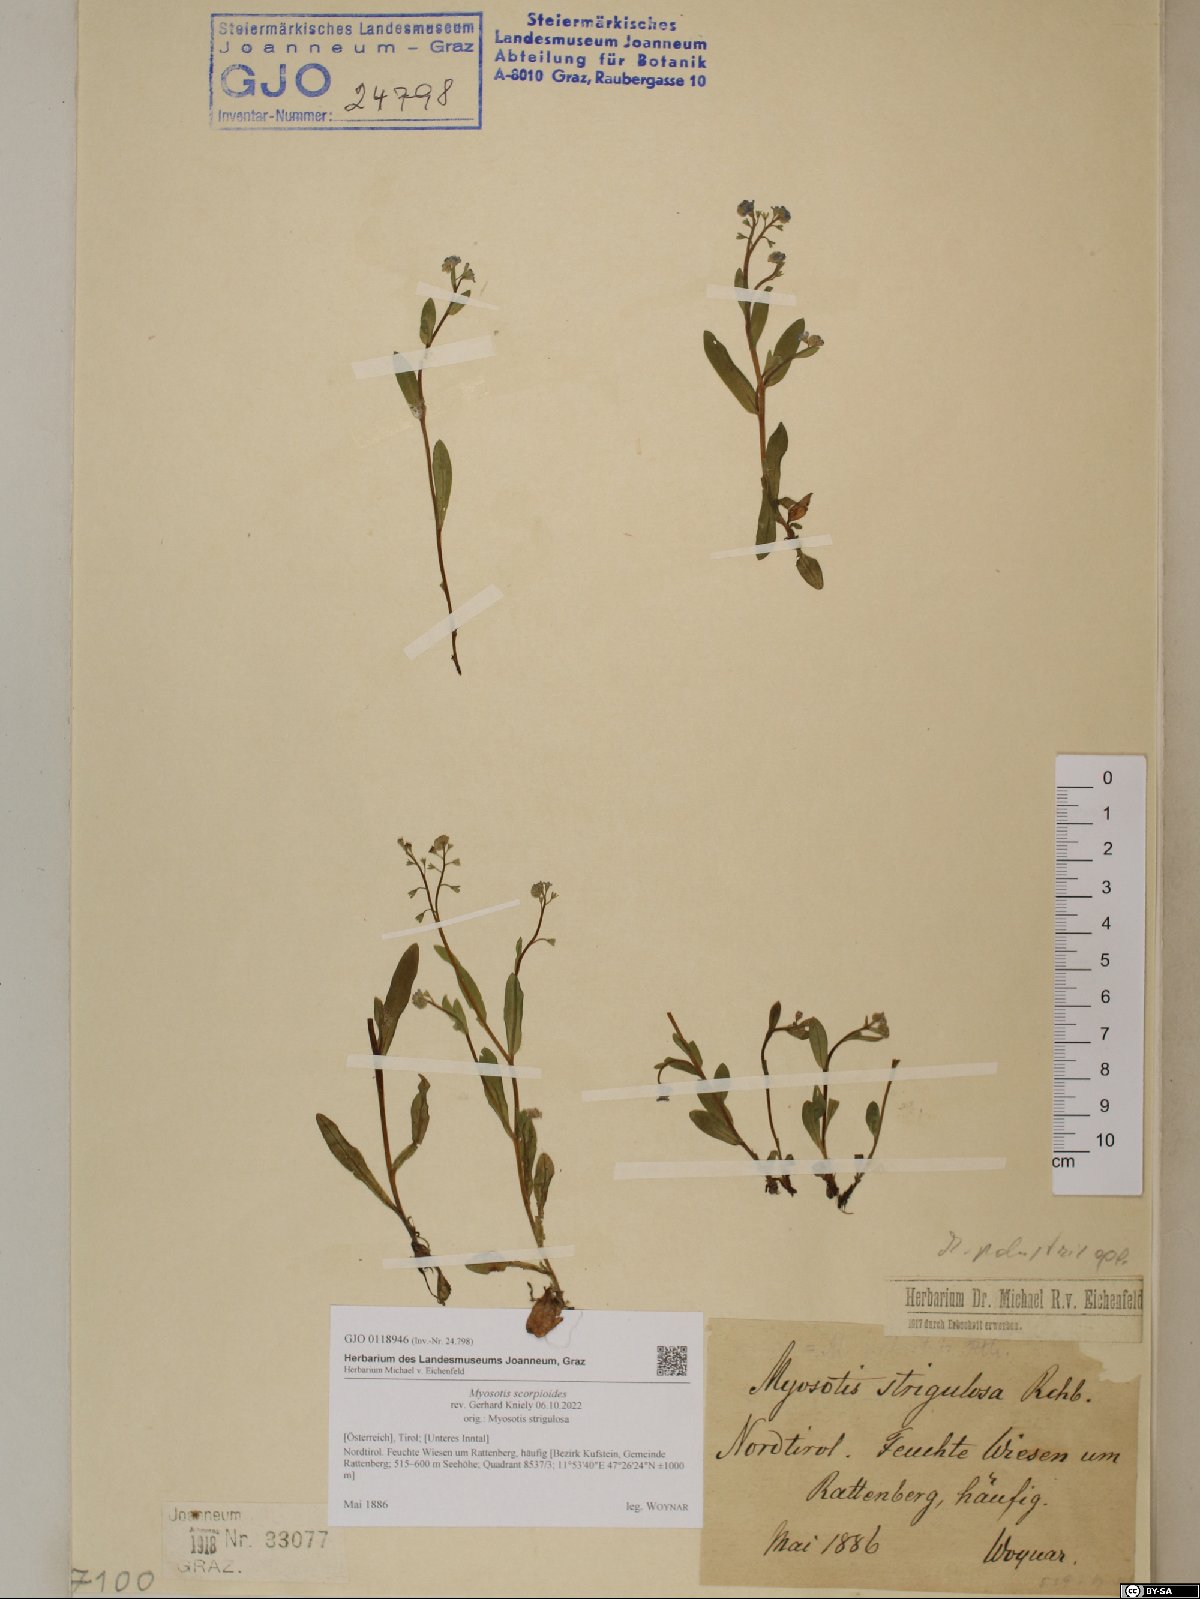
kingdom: Plantae
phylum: Tracheophyta
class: Magnoliopsida
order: Boraginales
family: Boraginaceae
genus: Myosotis
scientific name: Myosotis scorpioides
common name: Water forget-me-not
